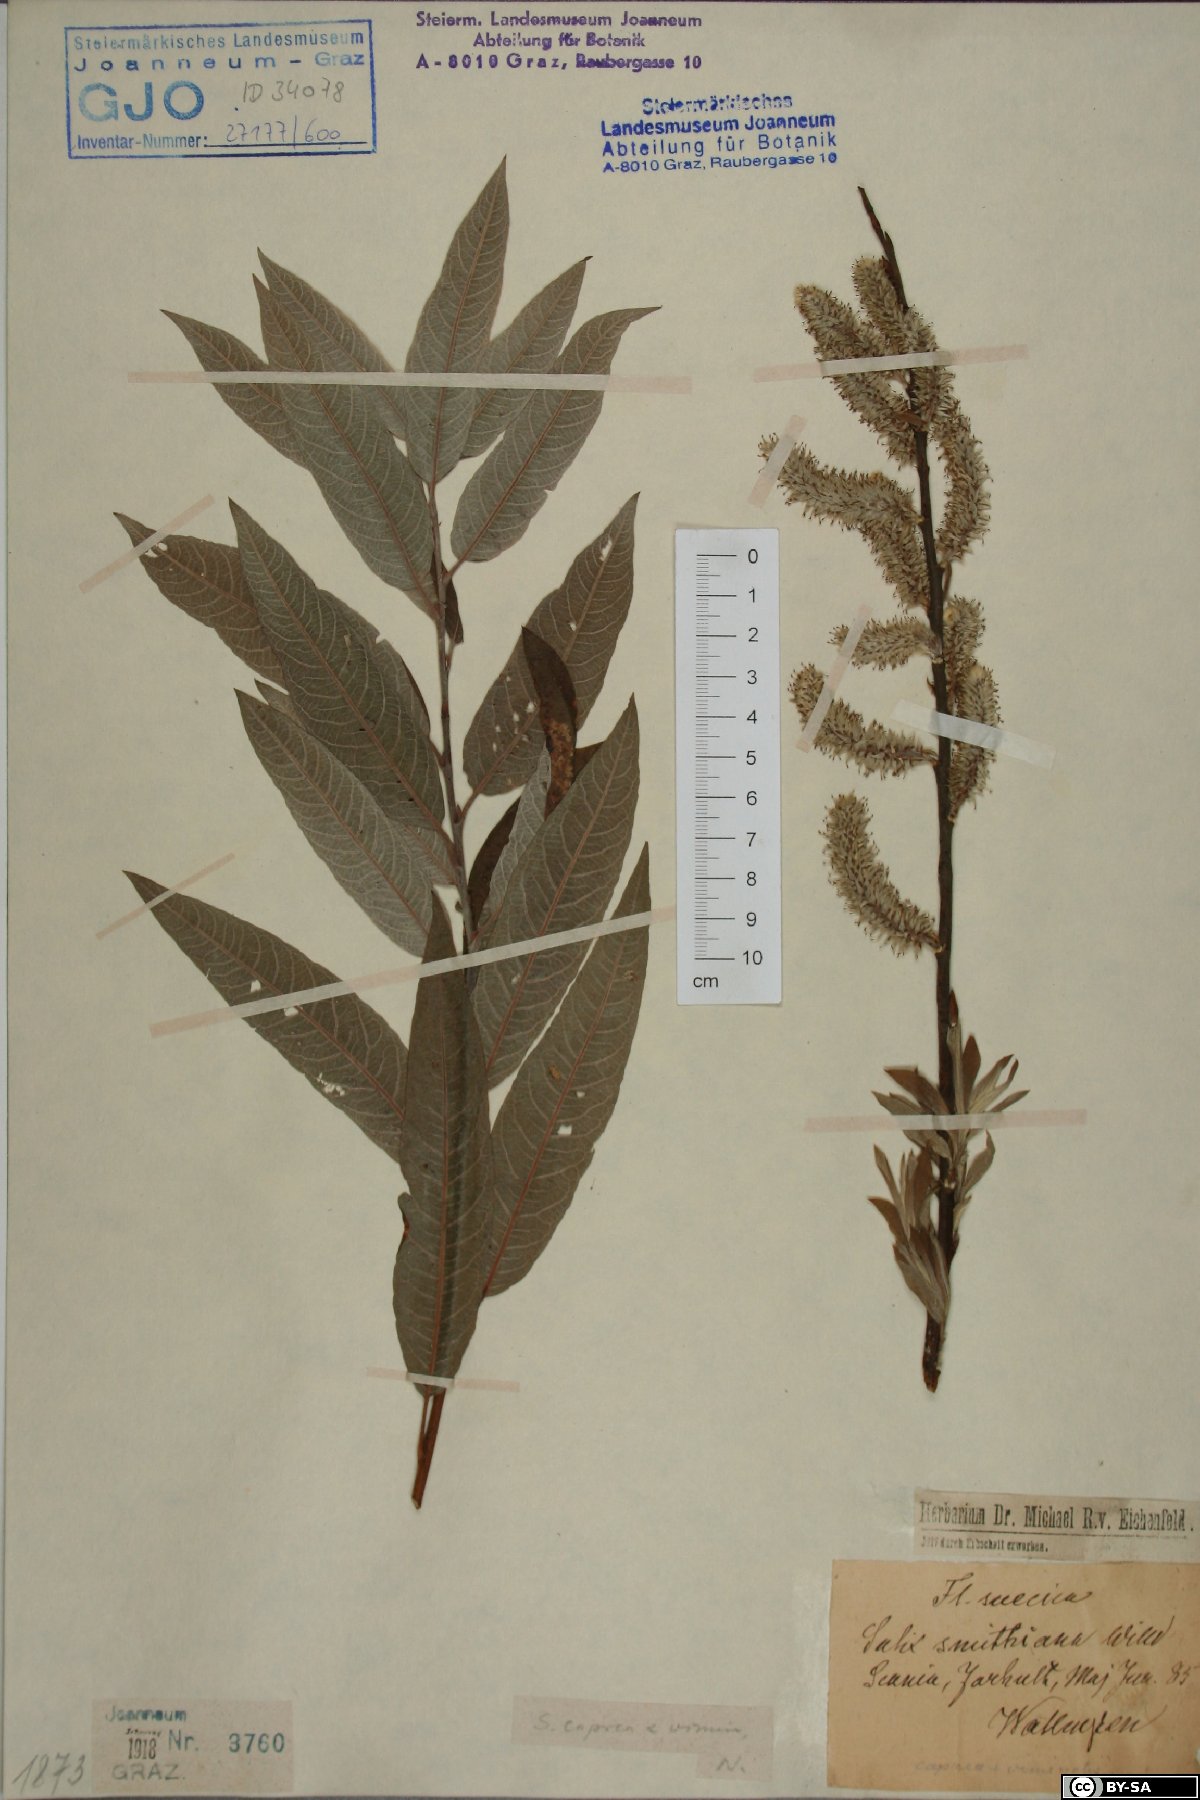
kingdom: Plantae
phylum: Tracheophyta
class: Magnoliopsida
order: Malpighiales
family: Salicaceae
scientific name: Salicaceae
